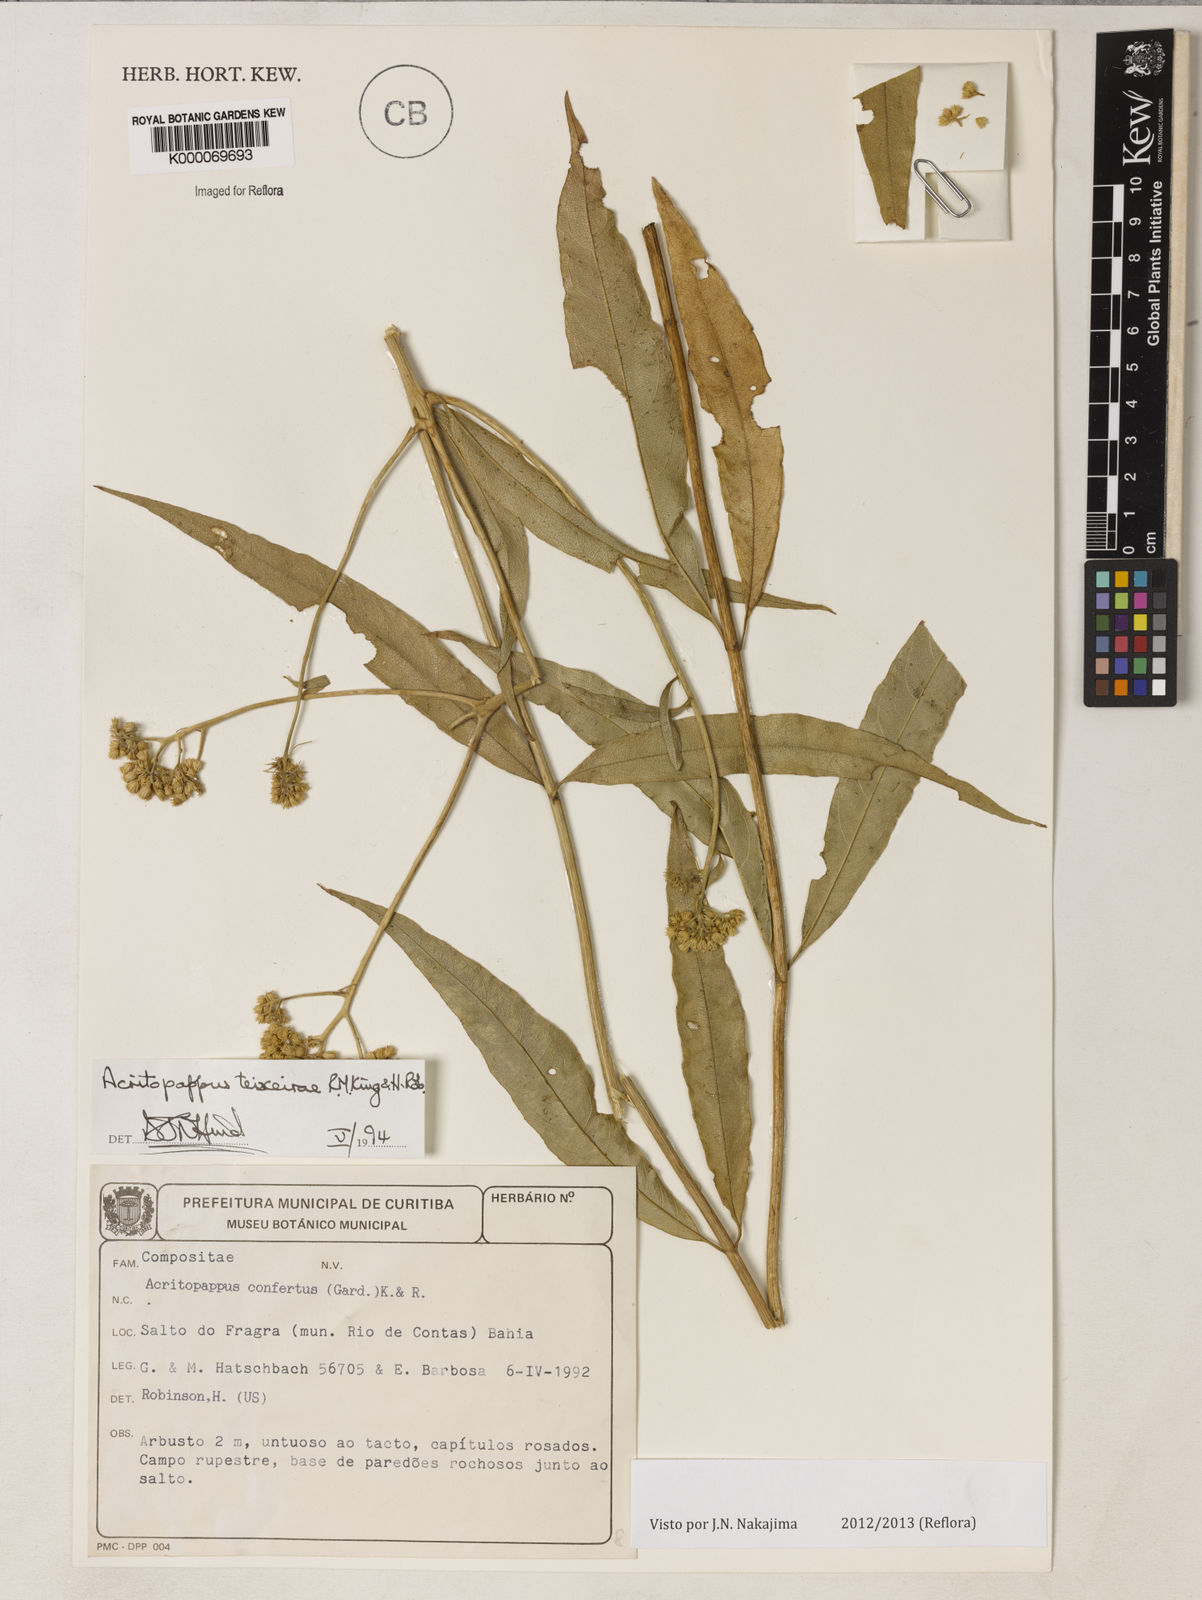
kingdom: Plantae
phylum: Tracheophyta
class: Magnoliopsida
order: Asterales
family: Asteraceae
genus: Acritopappus
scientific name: Acritopappus teixeirae
